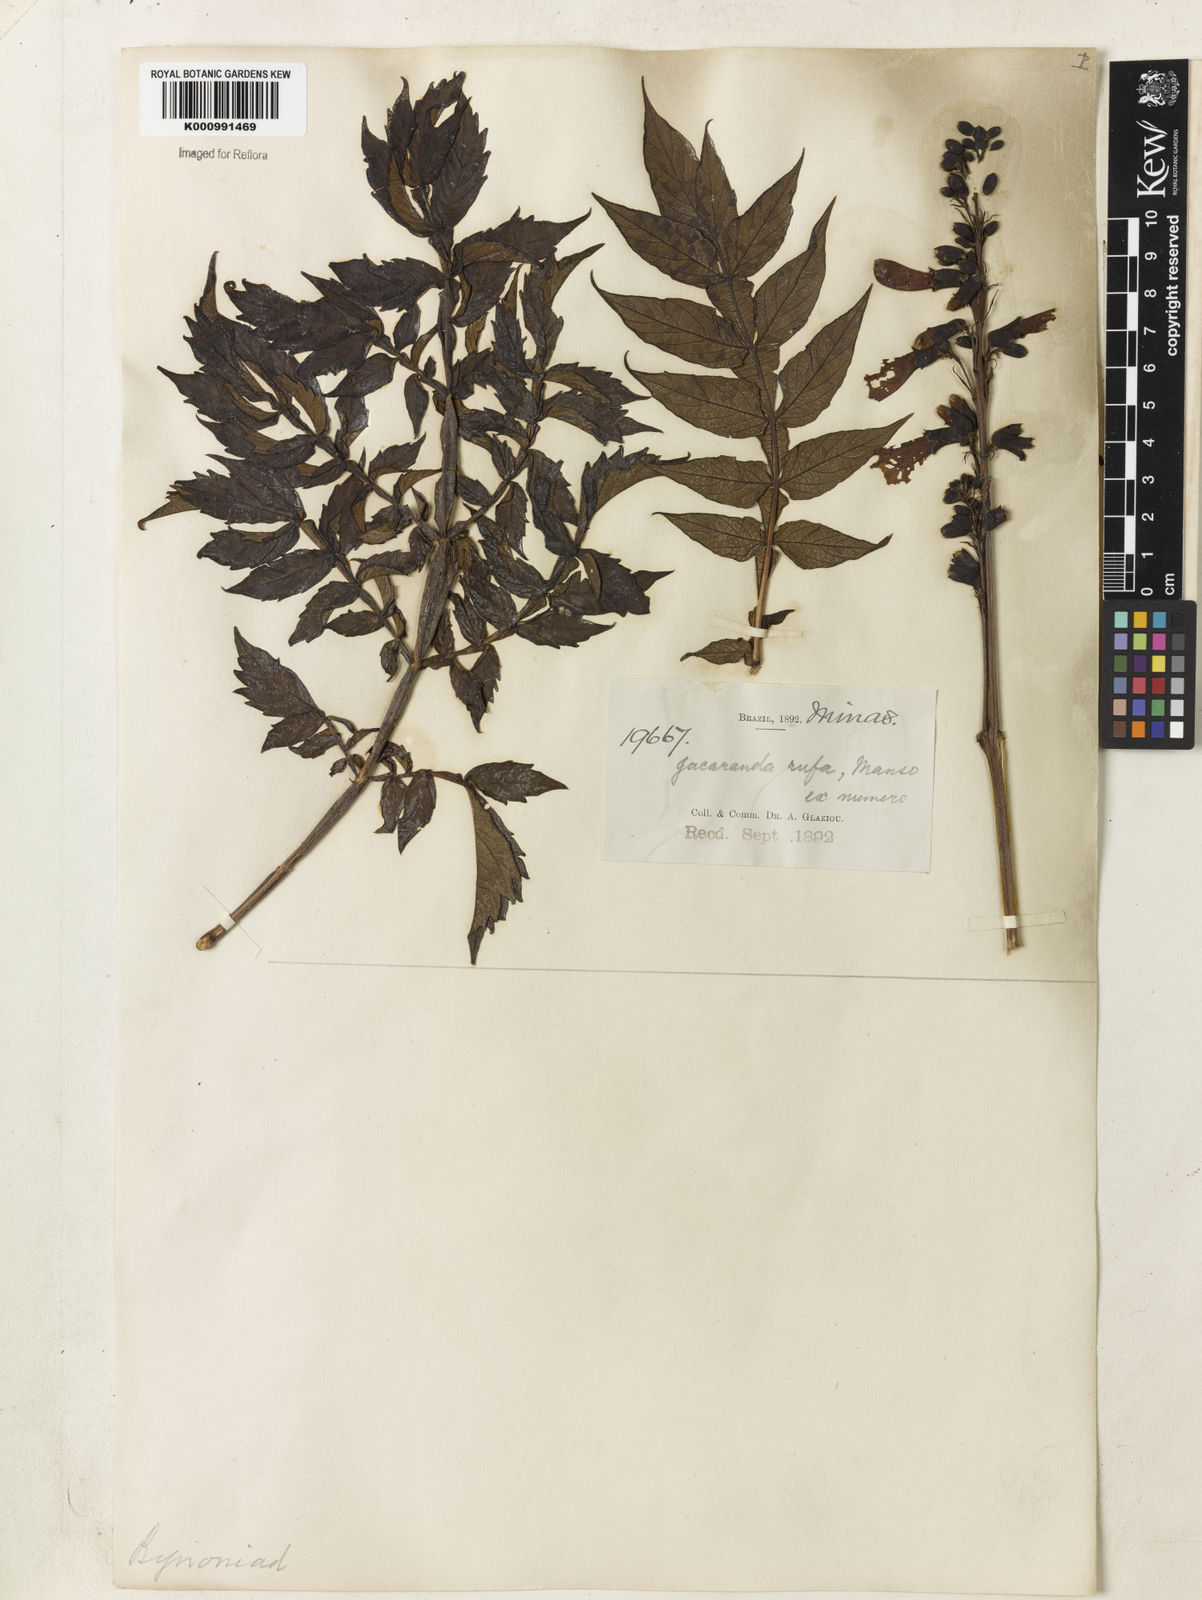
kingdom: Plantae
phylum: Tracheophyta
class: Magnoliopsida
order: Lamiales
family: Bignoniaceae
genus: Jacaranda
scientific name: Jacaranda rufa
